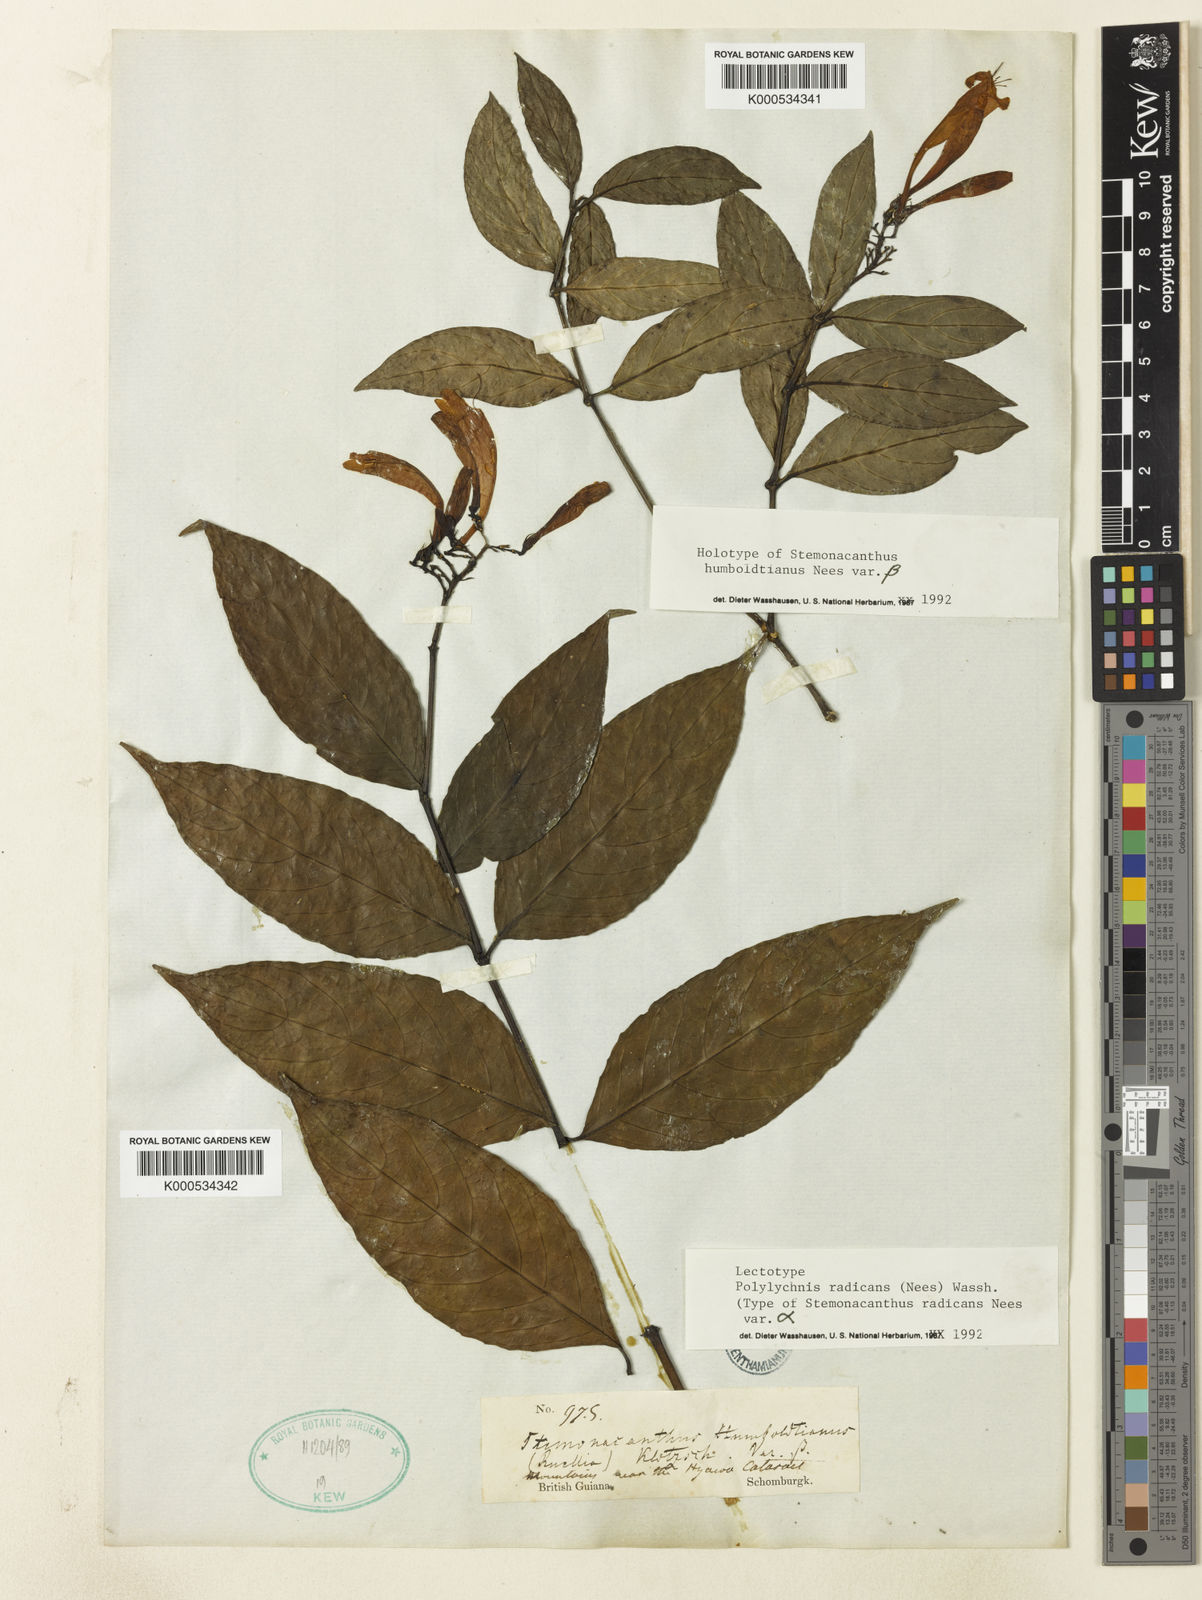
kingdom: Plantae
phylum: Tracheophyta
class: Magnoliopsida
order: Lamiales
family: Acanthaceae
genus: Ruellia
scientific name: Ruellia radicans
